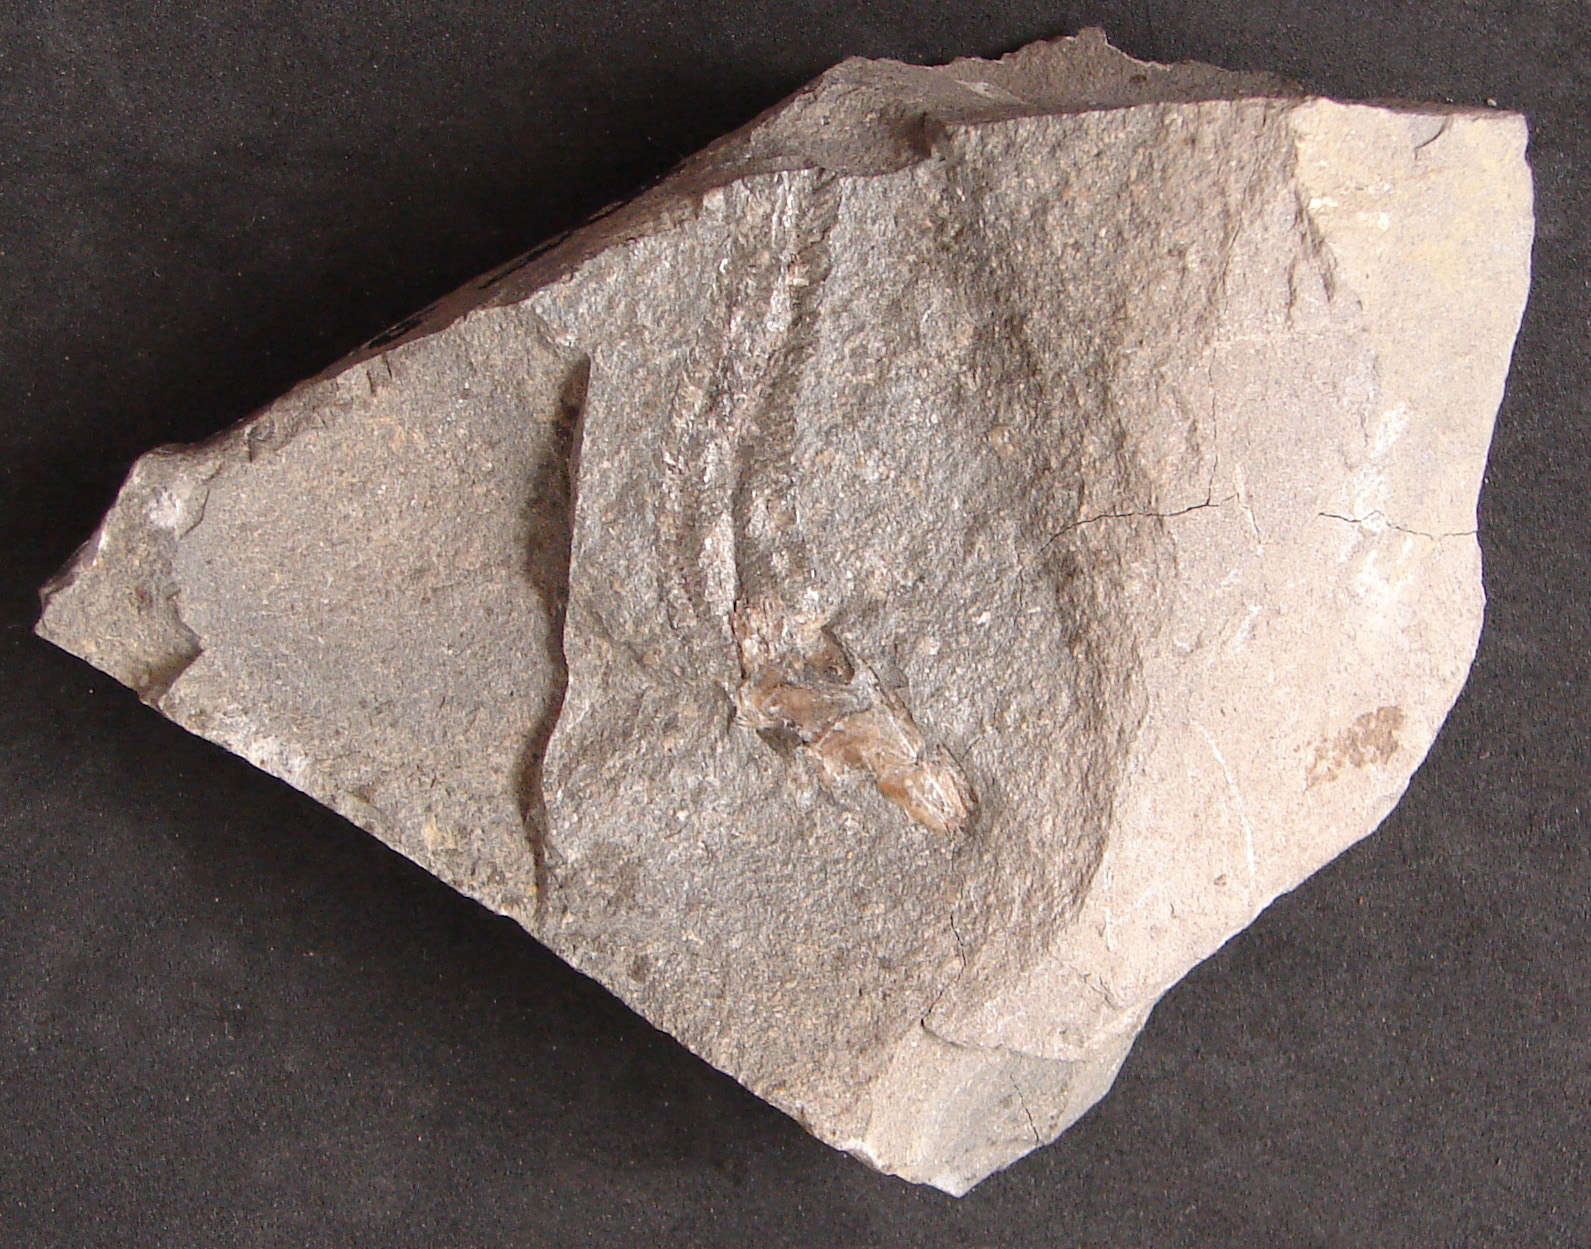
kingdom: Animalia
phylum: Chordata
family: Leptolepididae
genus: Leptolepis
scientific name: Leptolepis normandica
